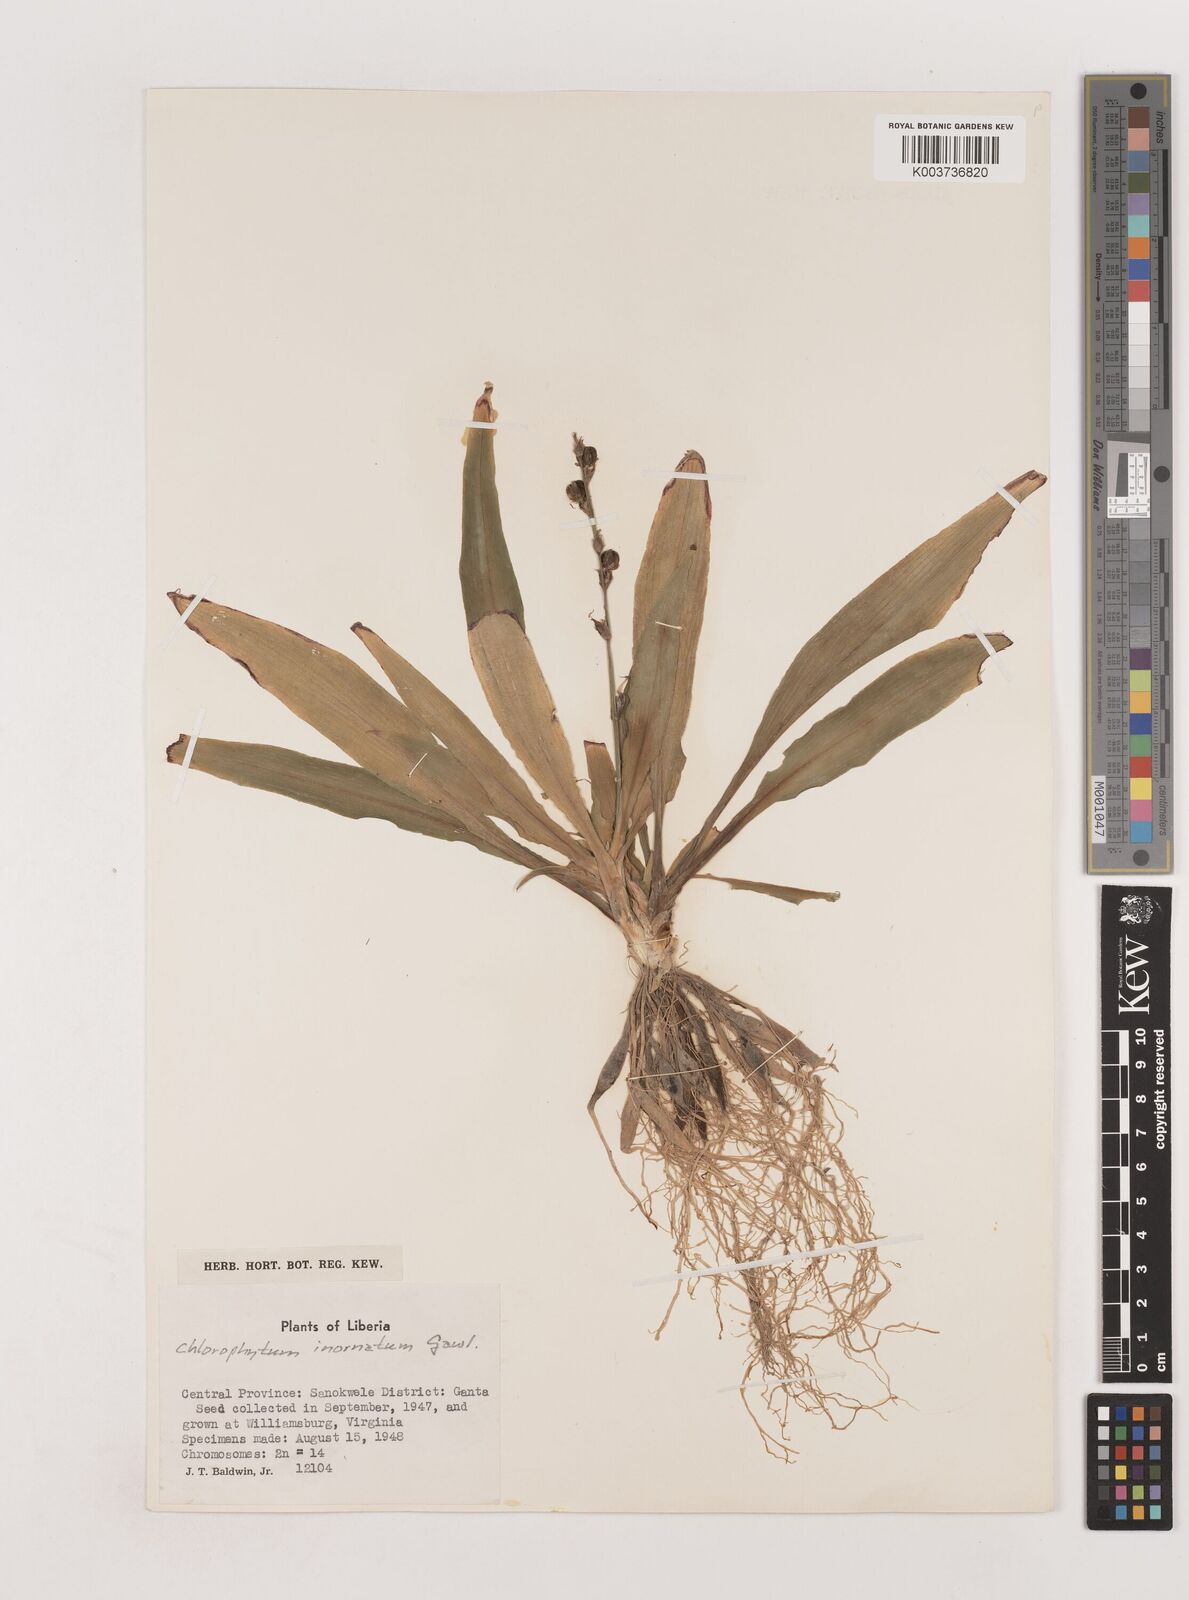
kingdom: Plantae
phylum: Tracheophyta
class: Liliopsida
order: Asparagales
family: Asparagaceae
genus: Chlorophytum
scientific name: Chlorophytum inornatum
